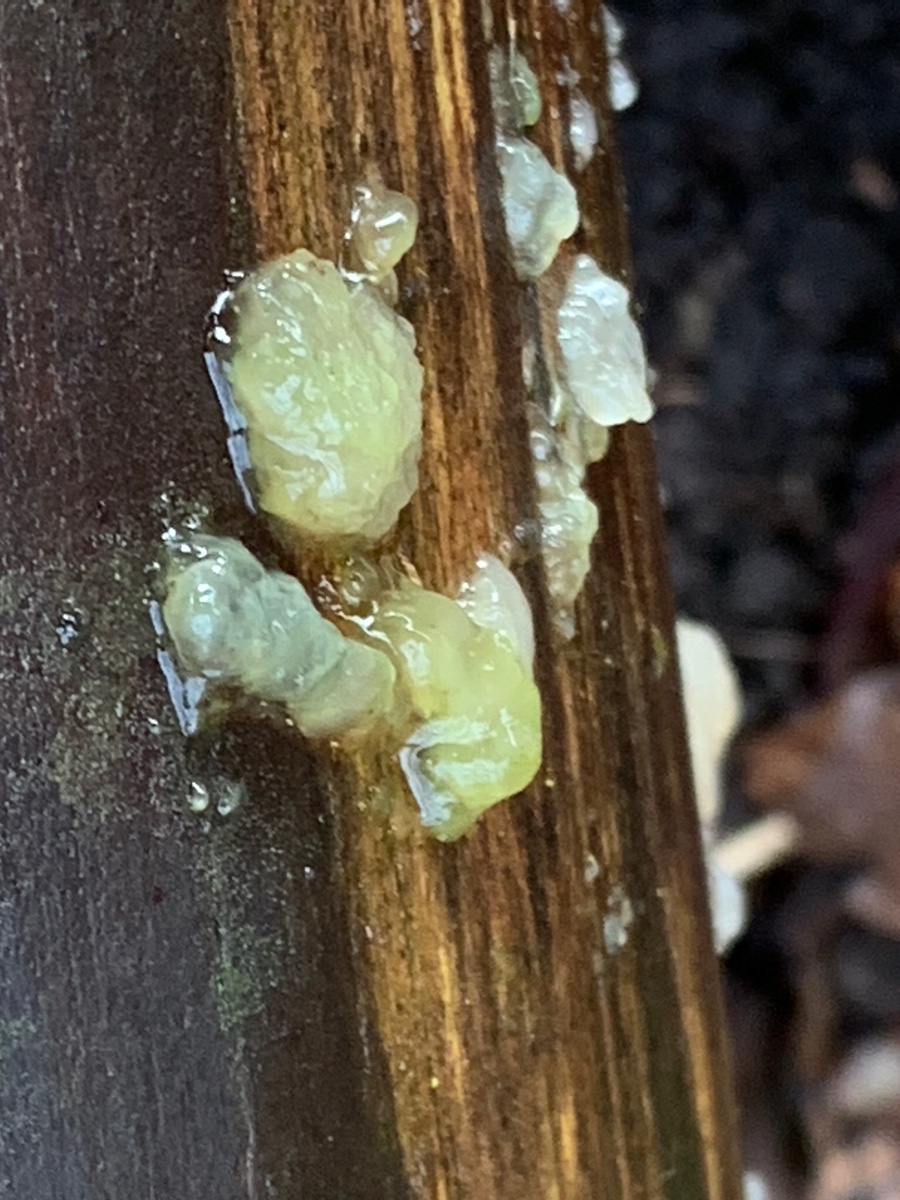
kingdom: Fungi
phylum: Basidiomycota
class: Agaricomycetes
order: Auriculariales
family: Hyaloriaceae
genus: Myxarium
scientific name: Myxarium nucleatum
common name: klar bævretop
